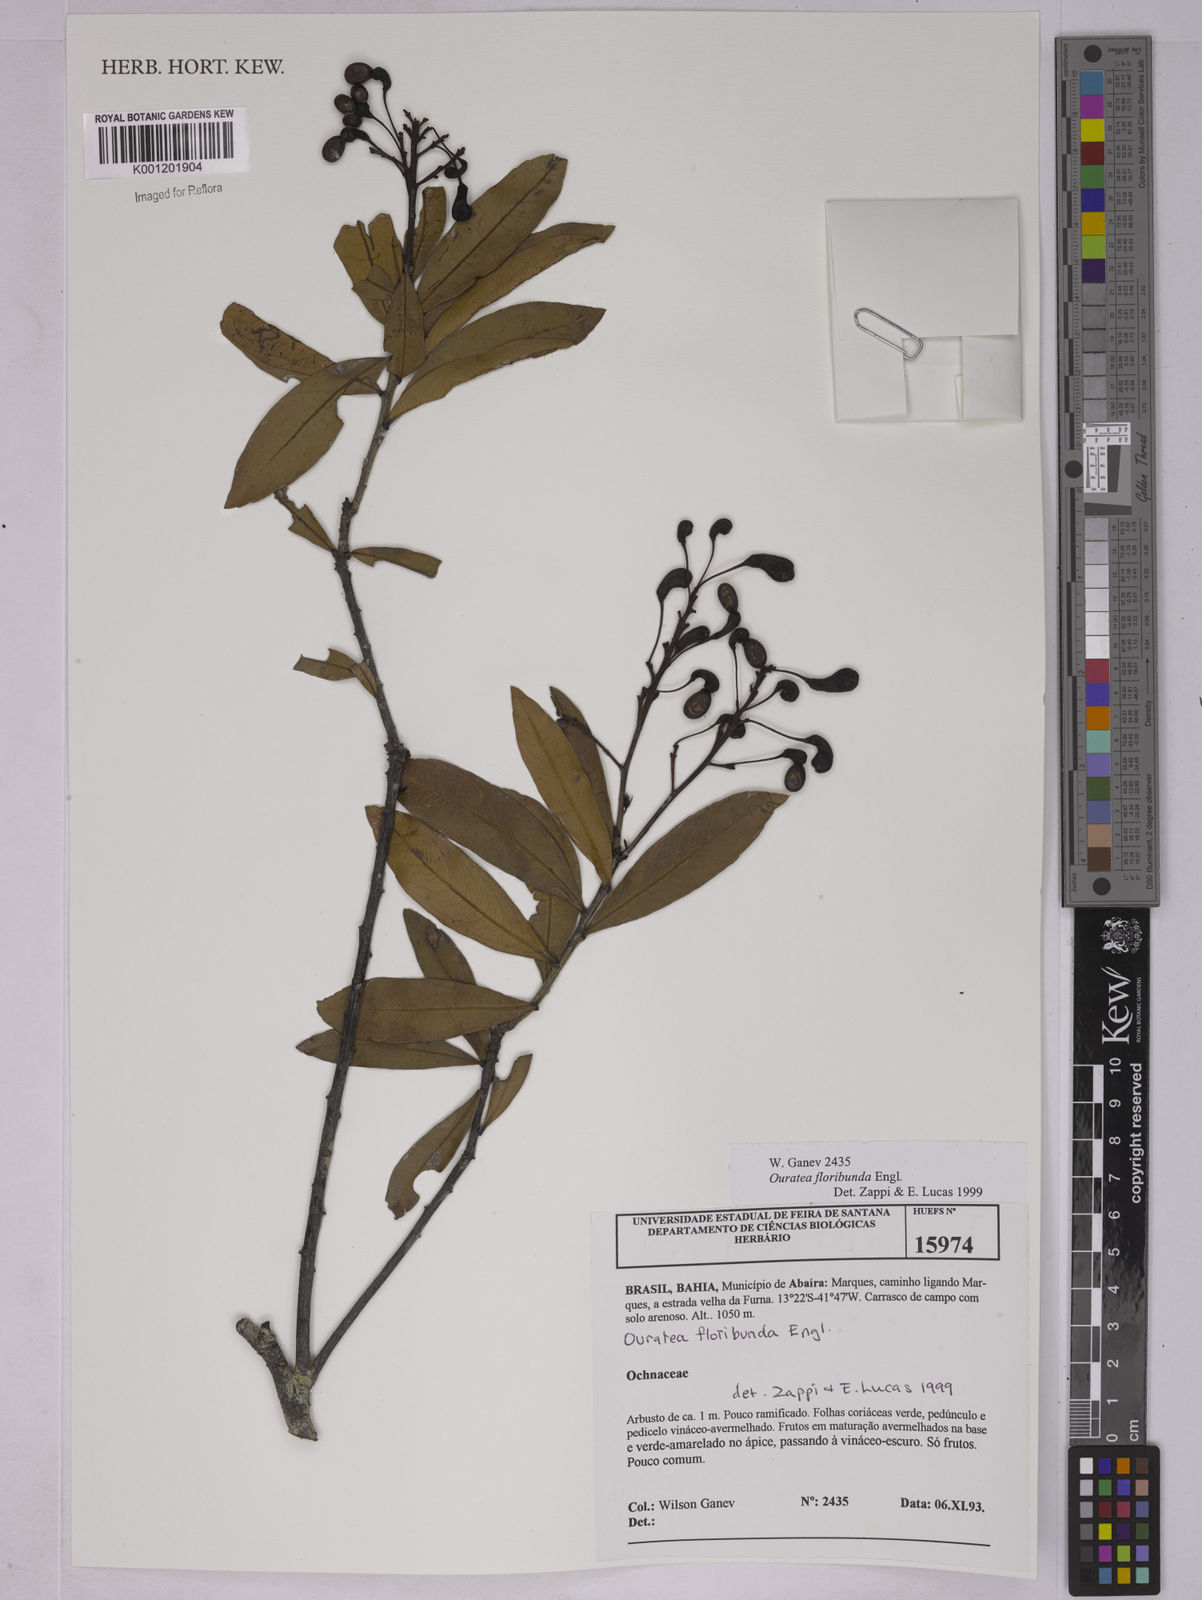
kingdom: Plantae
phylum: Tracheophyta
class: Magnoliopsida
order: Malpighiales
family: Ochnaceae
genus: Ouratea
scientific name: Ouratea floribunda
